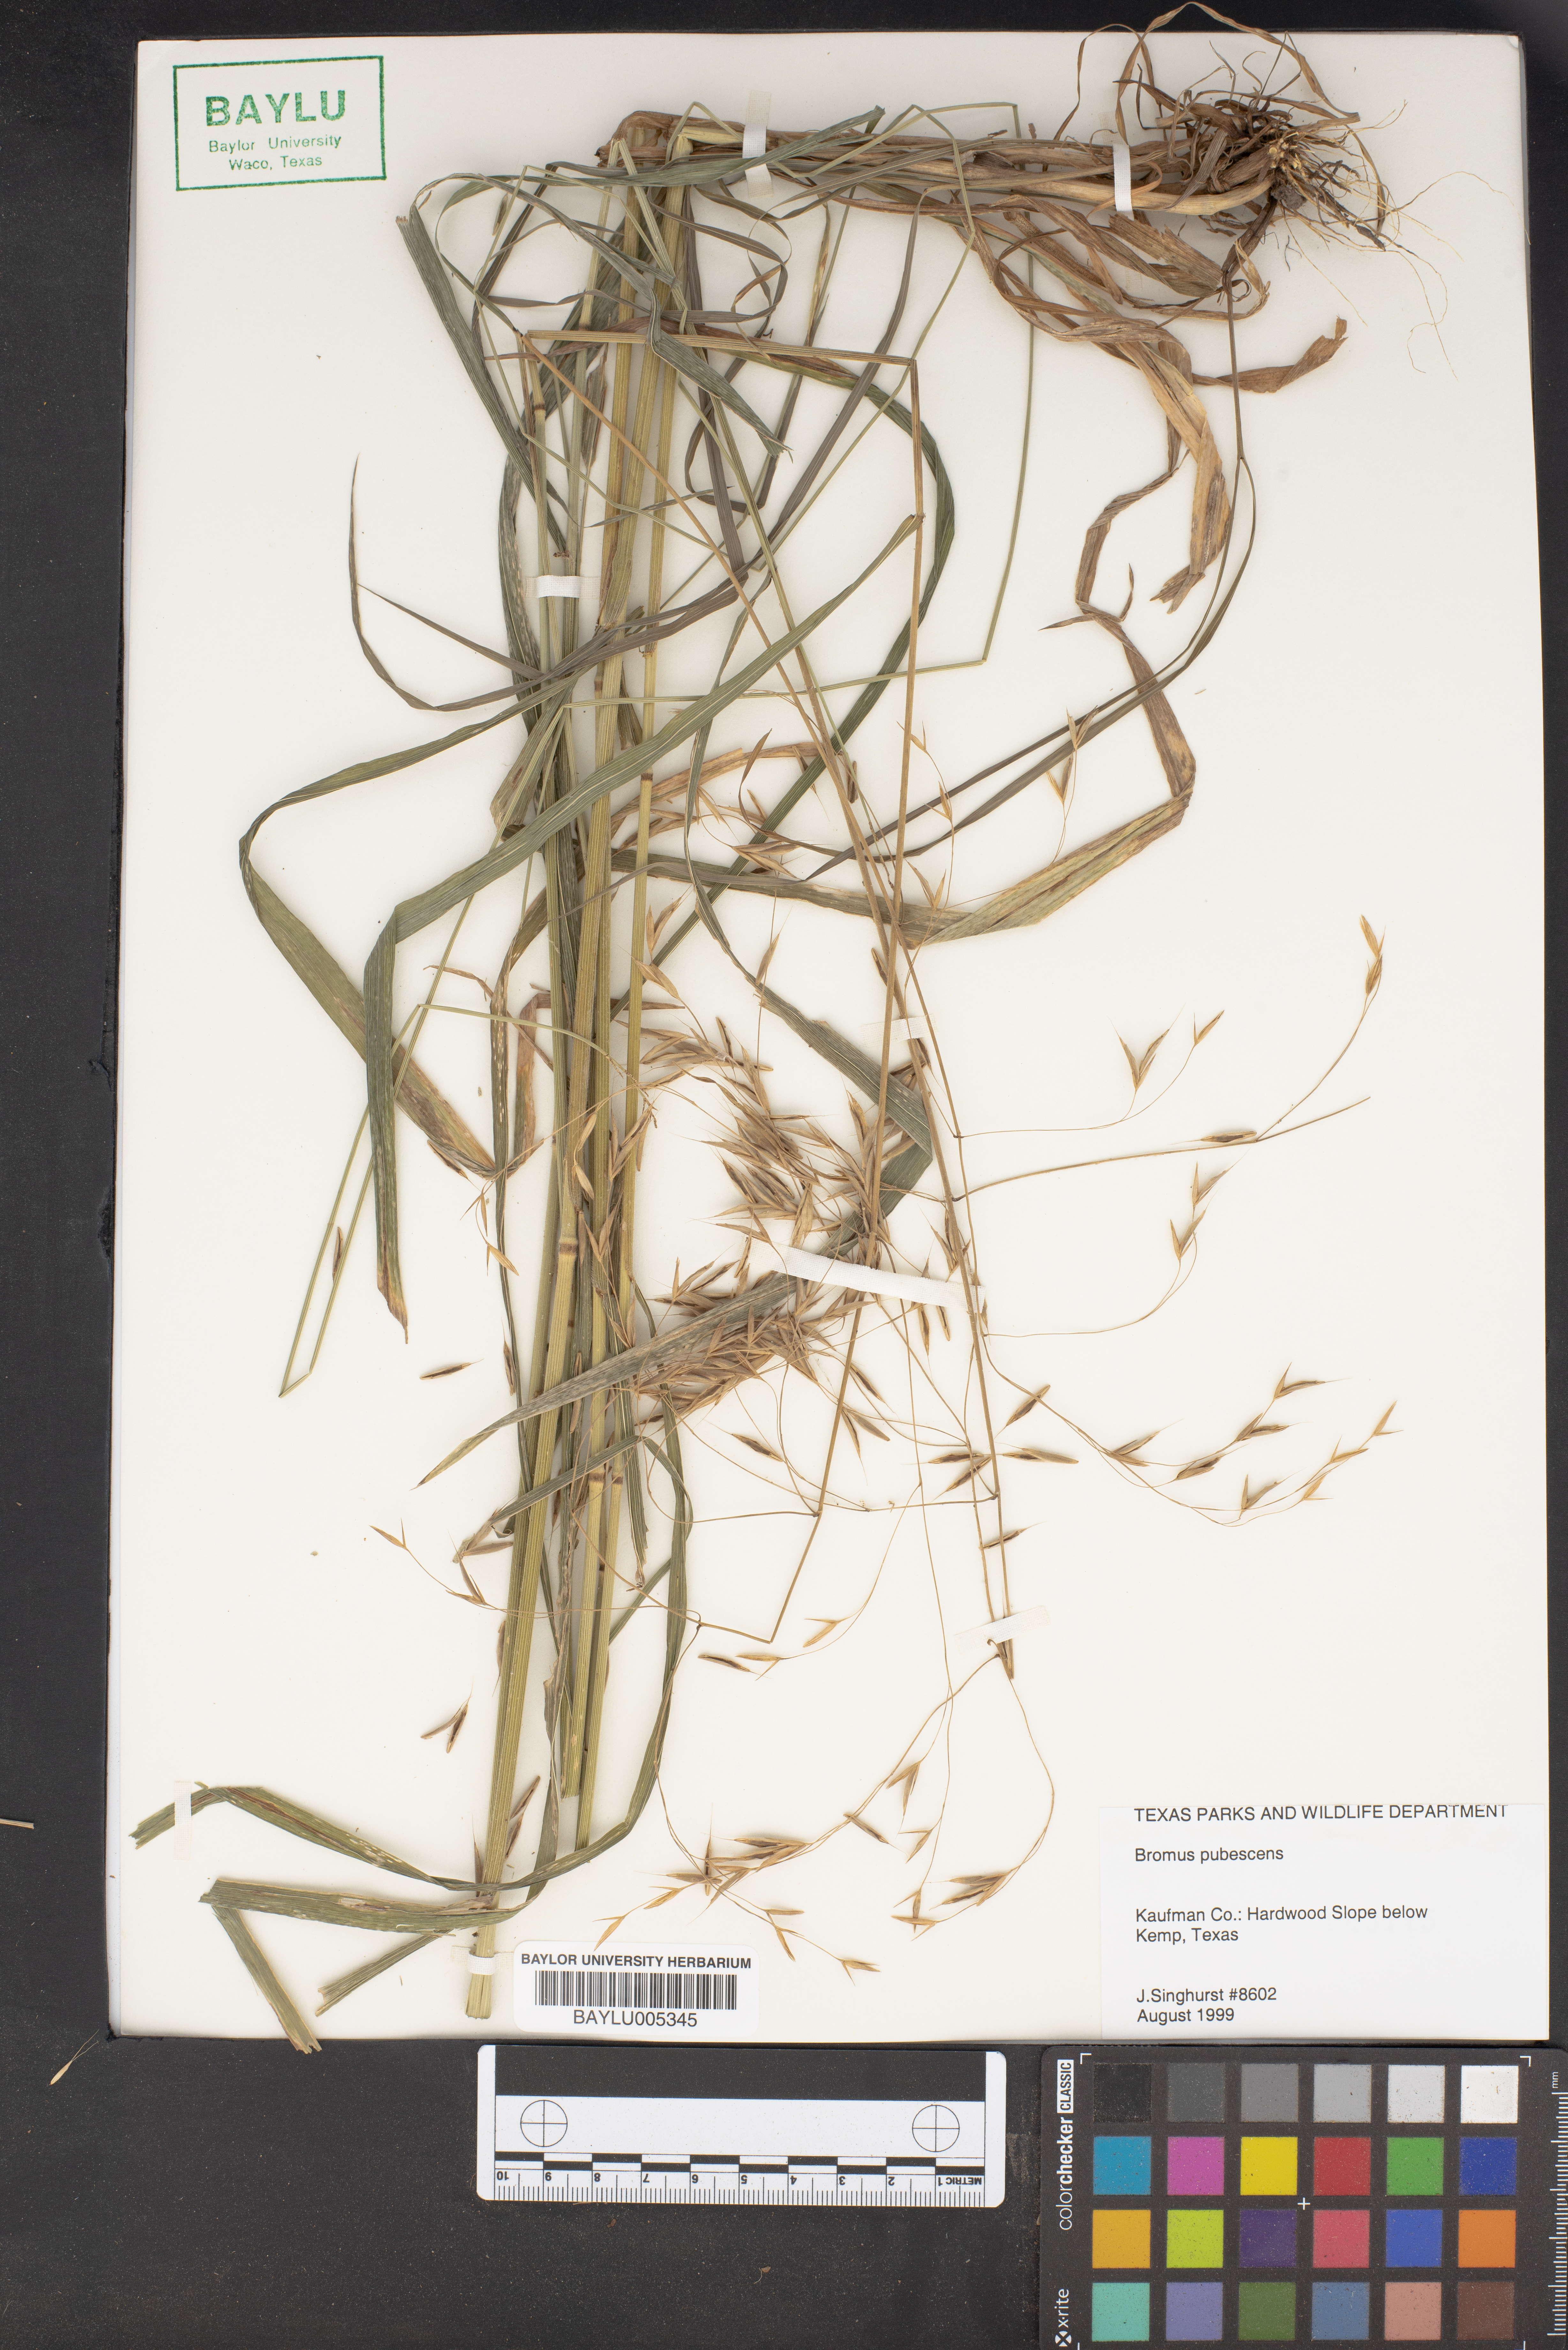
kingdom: Plantae
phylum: Tracheophyta
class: Liliopsida
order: Poales
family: Poaceae
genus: Bromus
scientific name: Bromus pubescens
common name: Hairy wood brome grass
